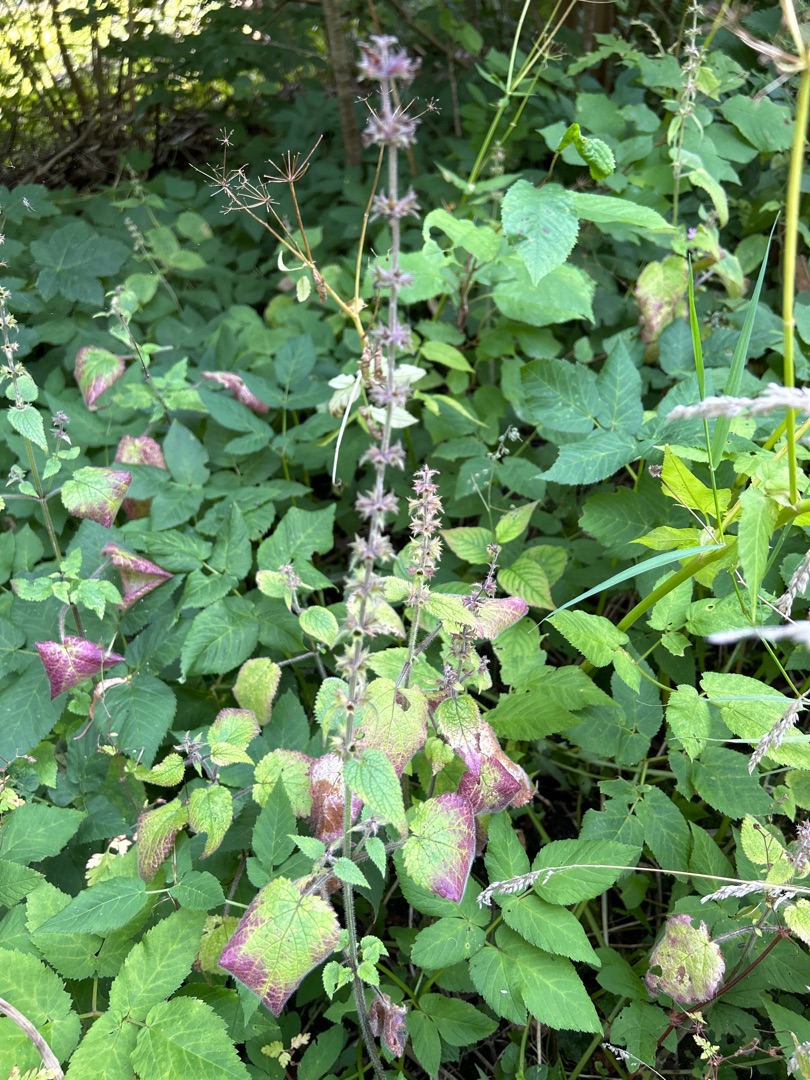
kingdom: Plantae
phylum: Tracheophyta
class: Magnoliopsida
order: Lamiales
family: Lamiaceae
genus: Stachys
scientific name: Stachys sylvatica
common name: Skov-galtetand
